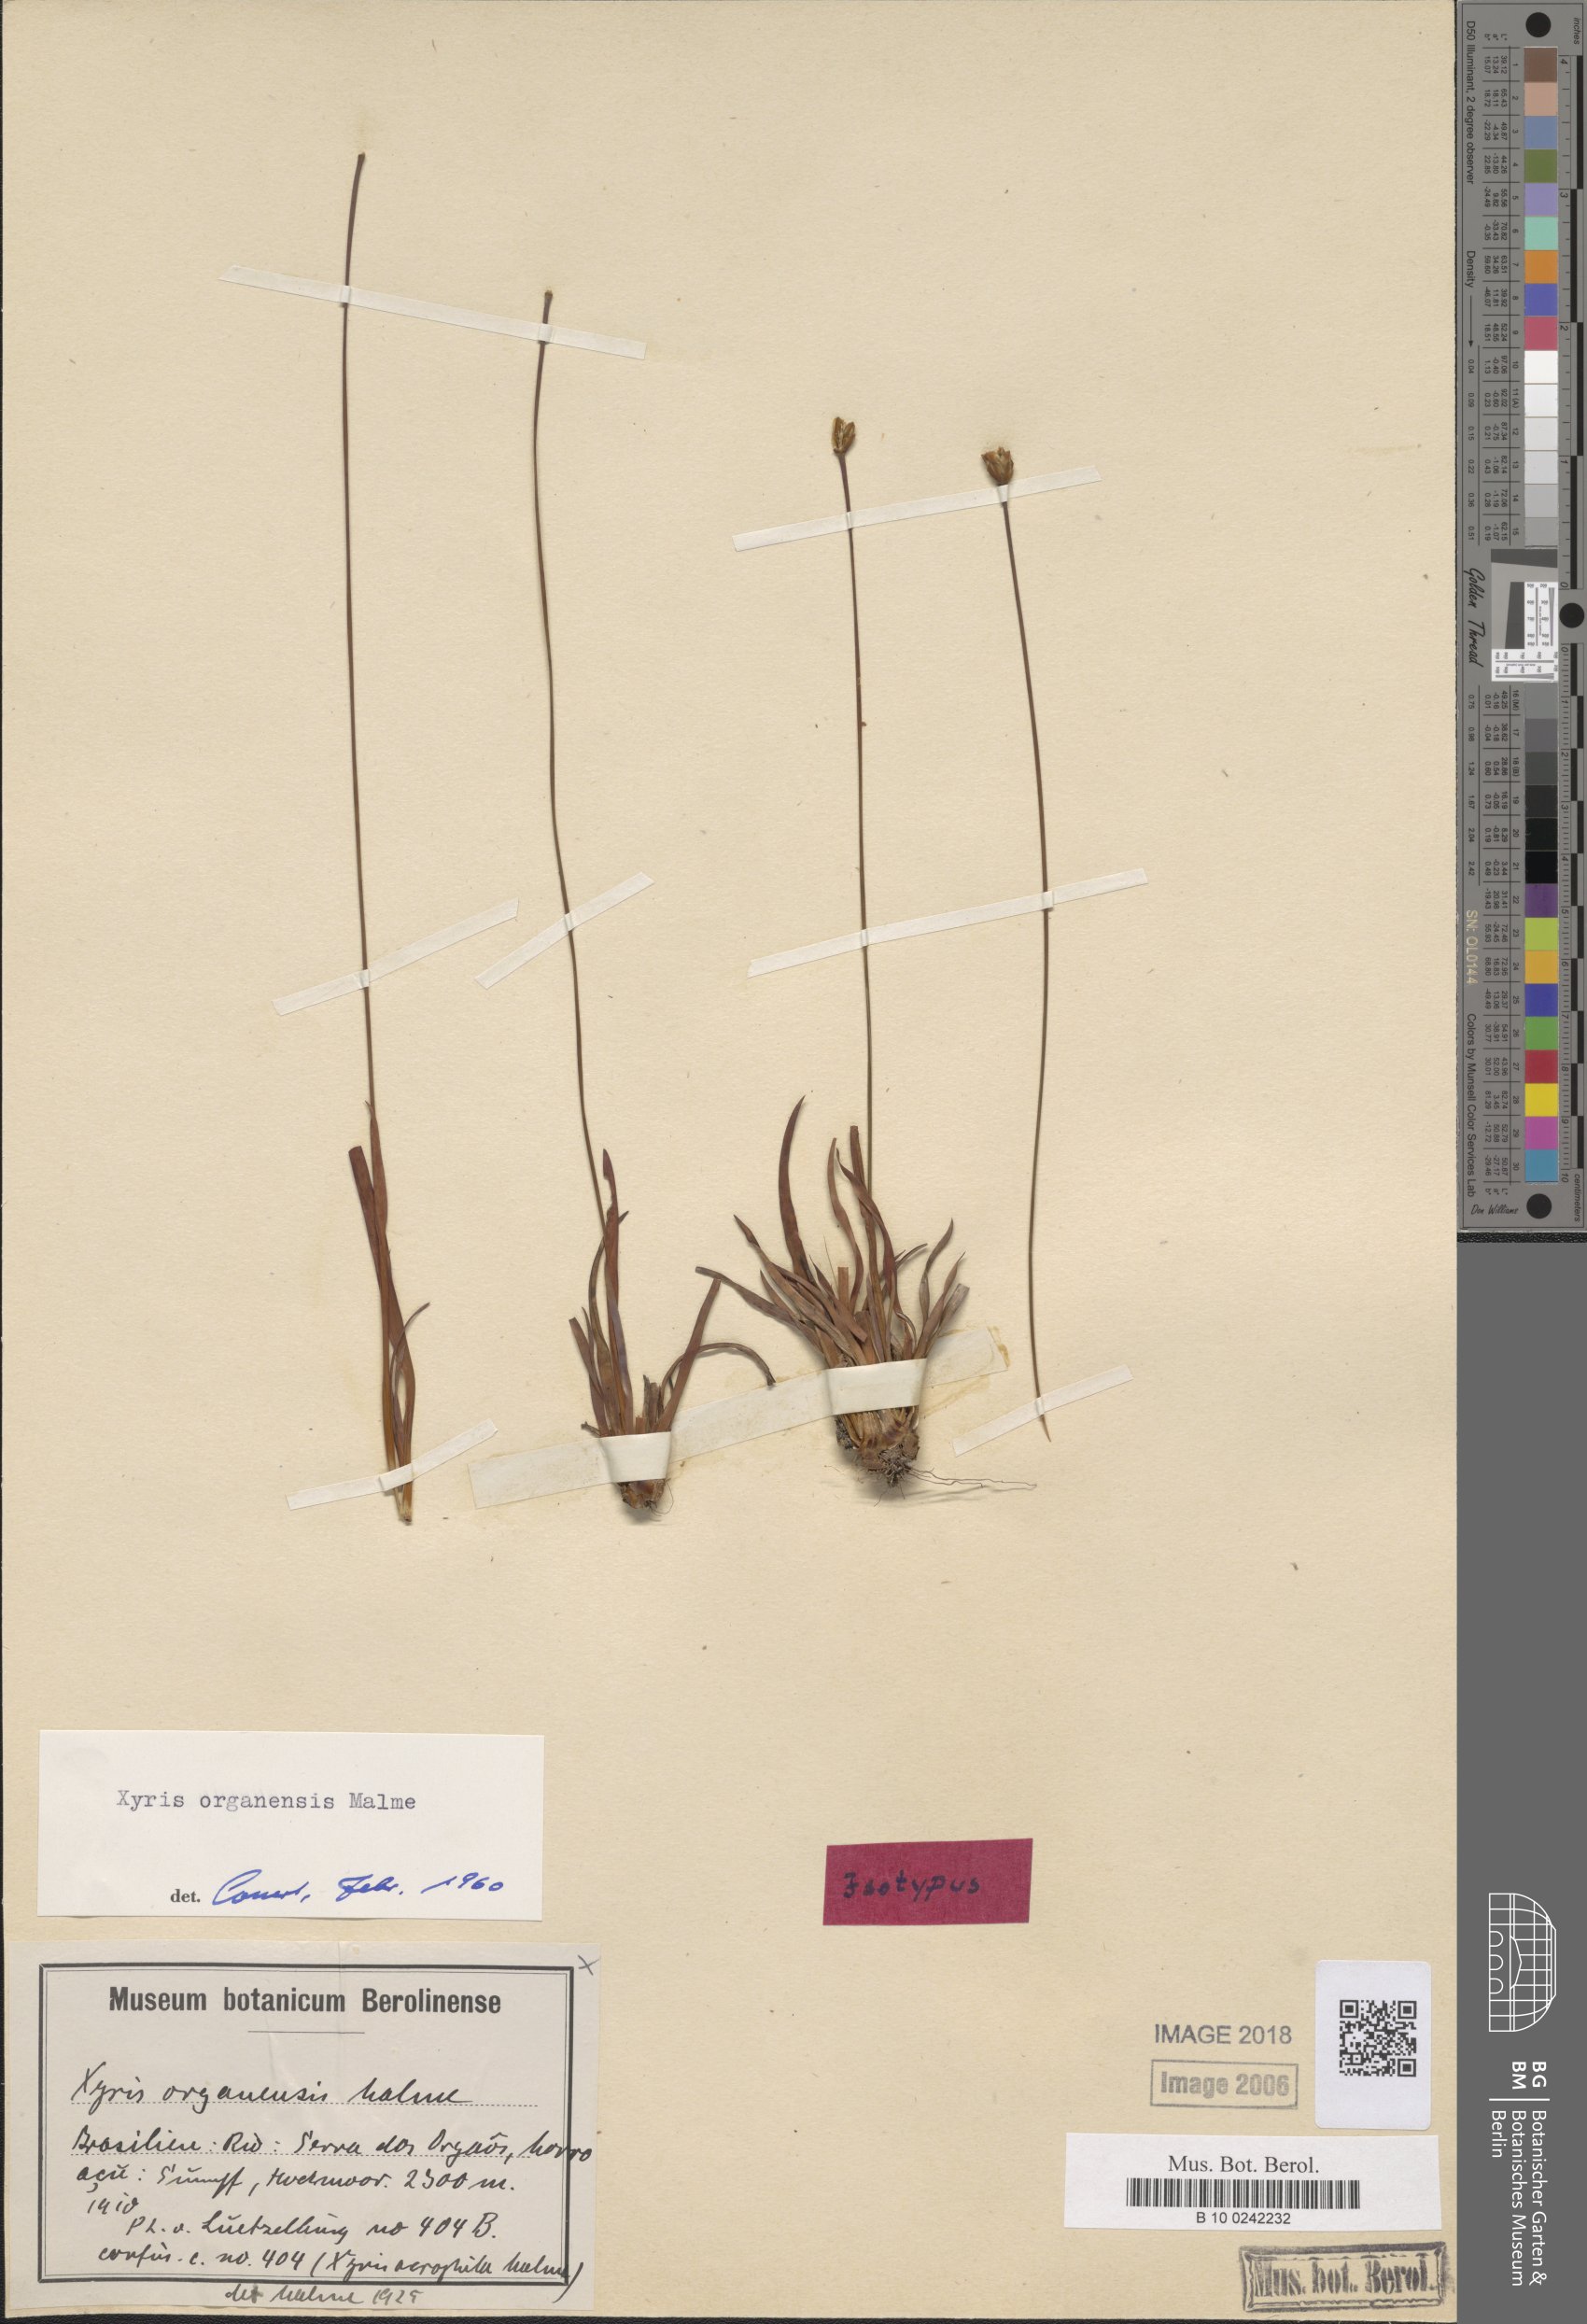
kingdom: Plantae
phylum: Tracheophyta
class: Liliopsida
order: Poales
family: Xyridaceae
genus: Xyris
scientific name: Xyris organensis
